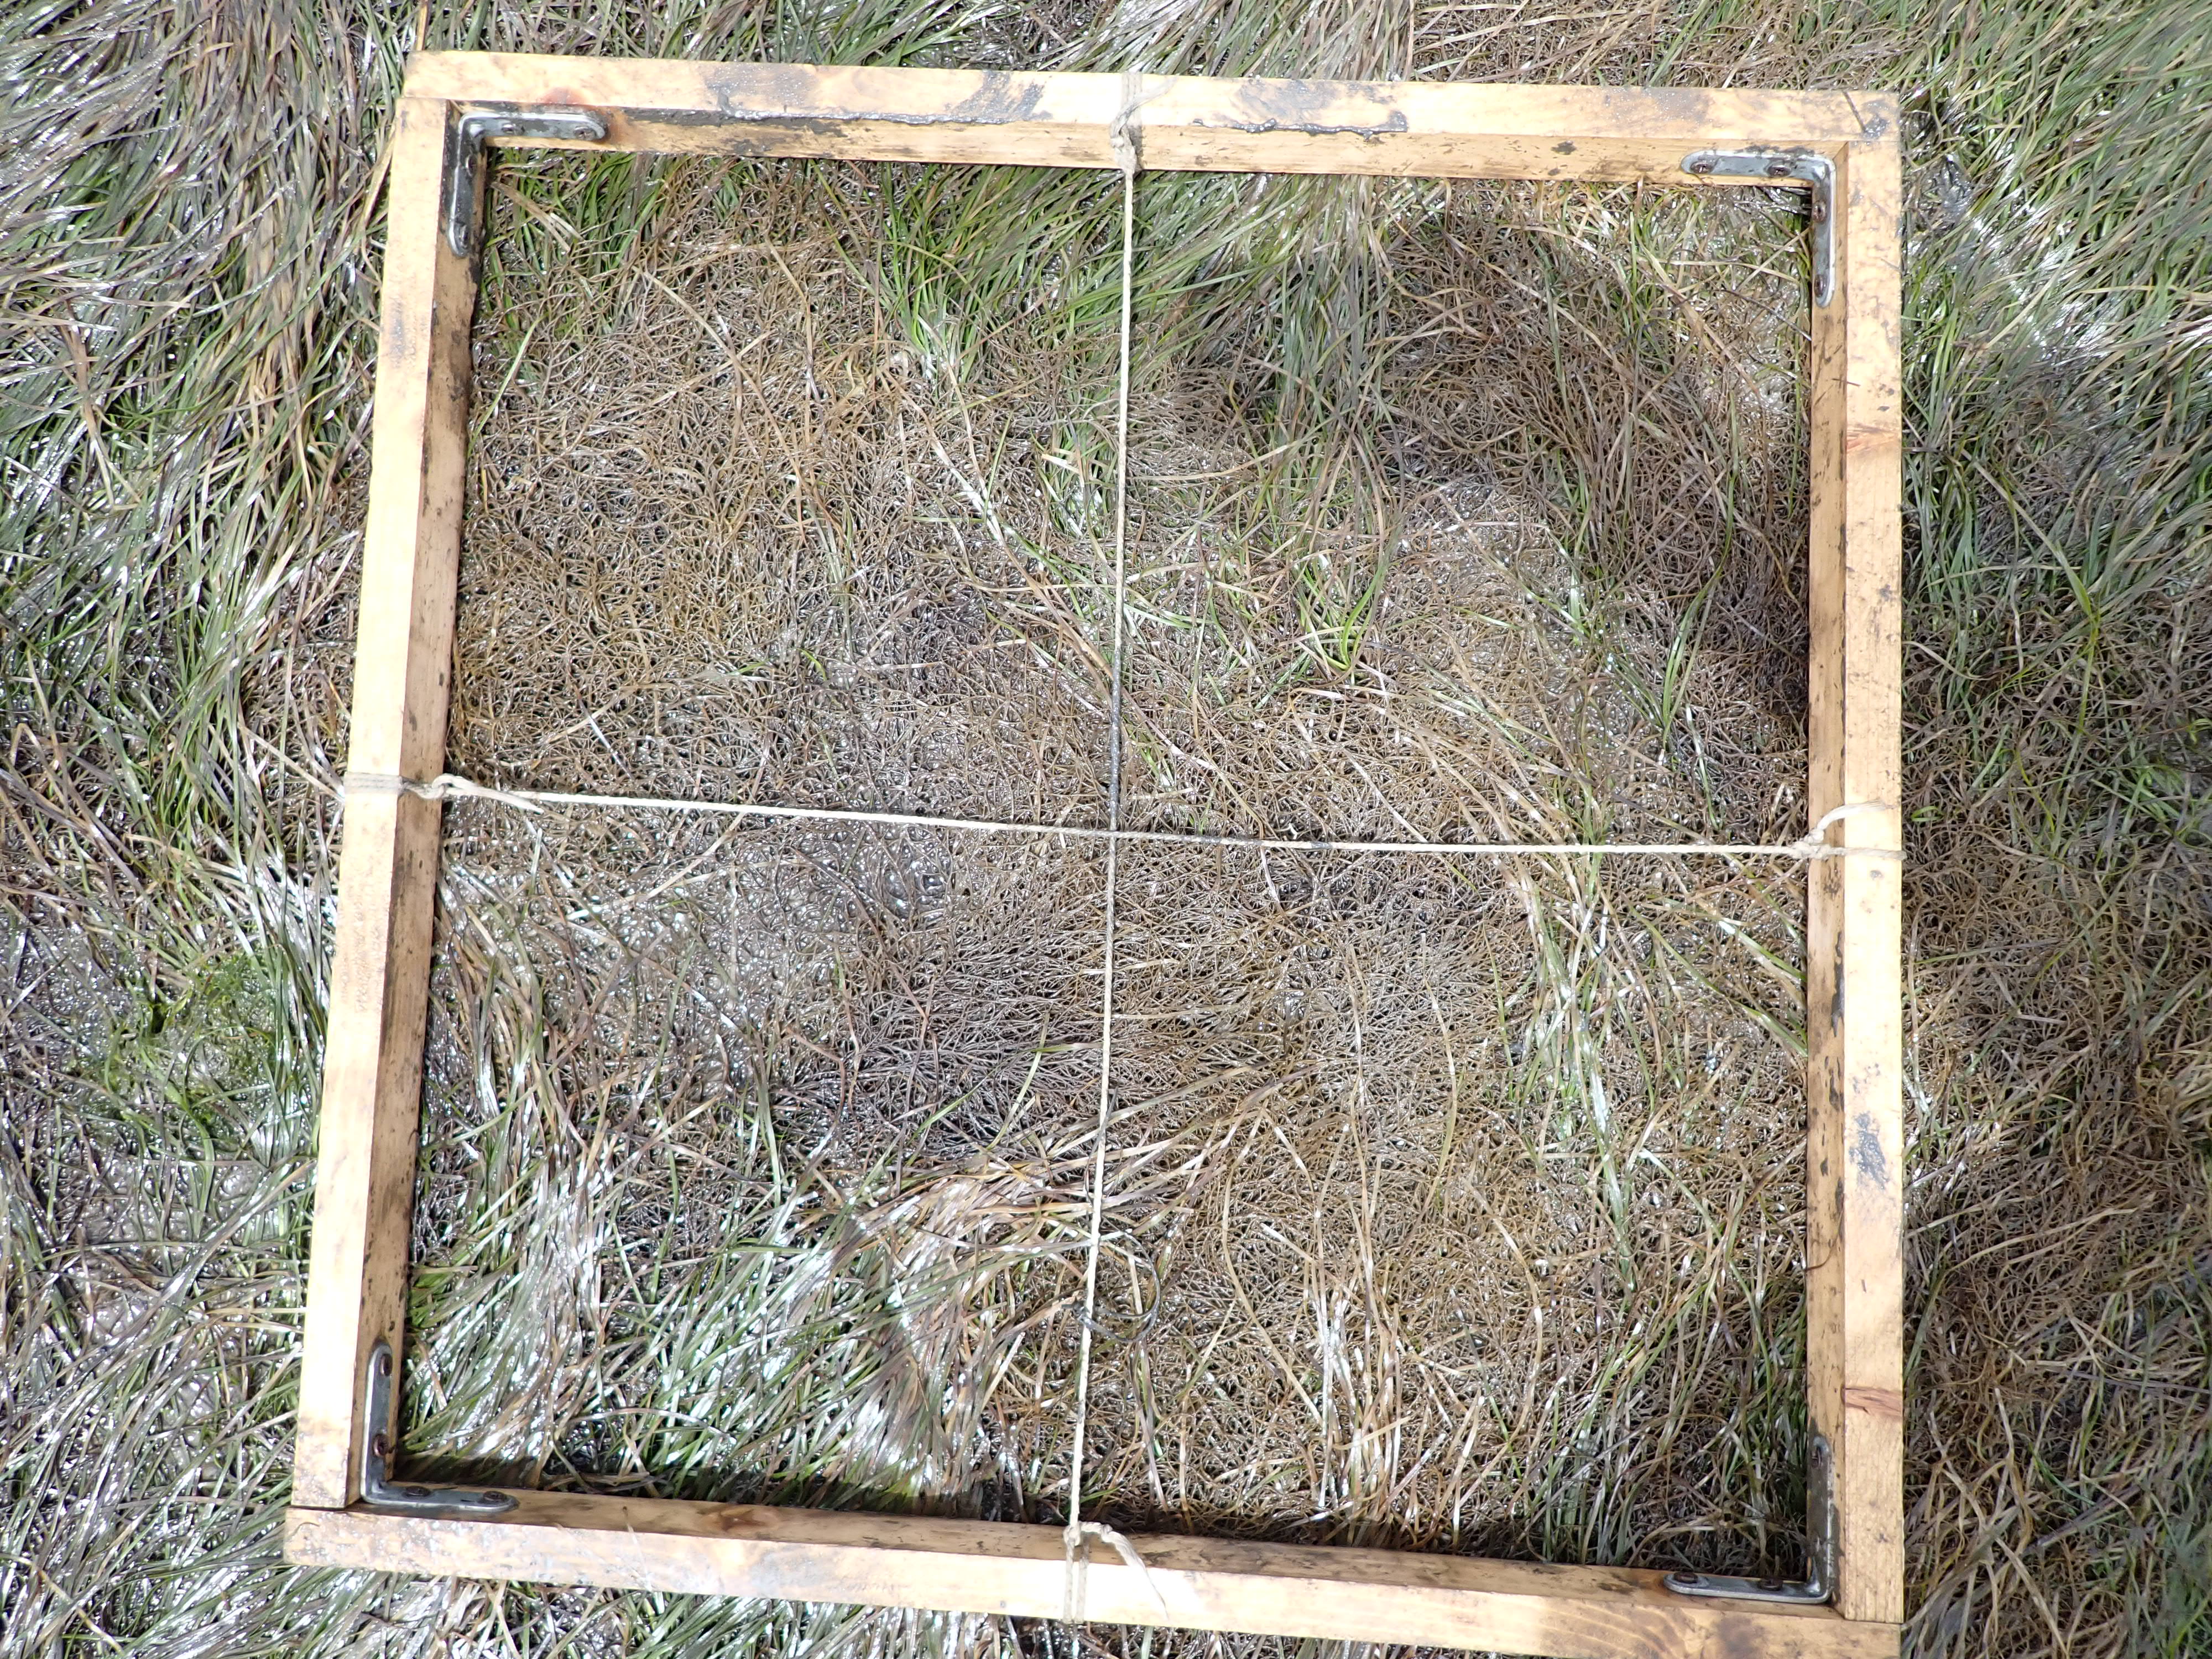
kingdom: Plantae
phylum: Tracheophyta
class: Liliopsida
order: Alismatales
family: Zosteraceae
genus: Zostera
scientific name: Zostera noltii
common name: Dwarf eelgrass
